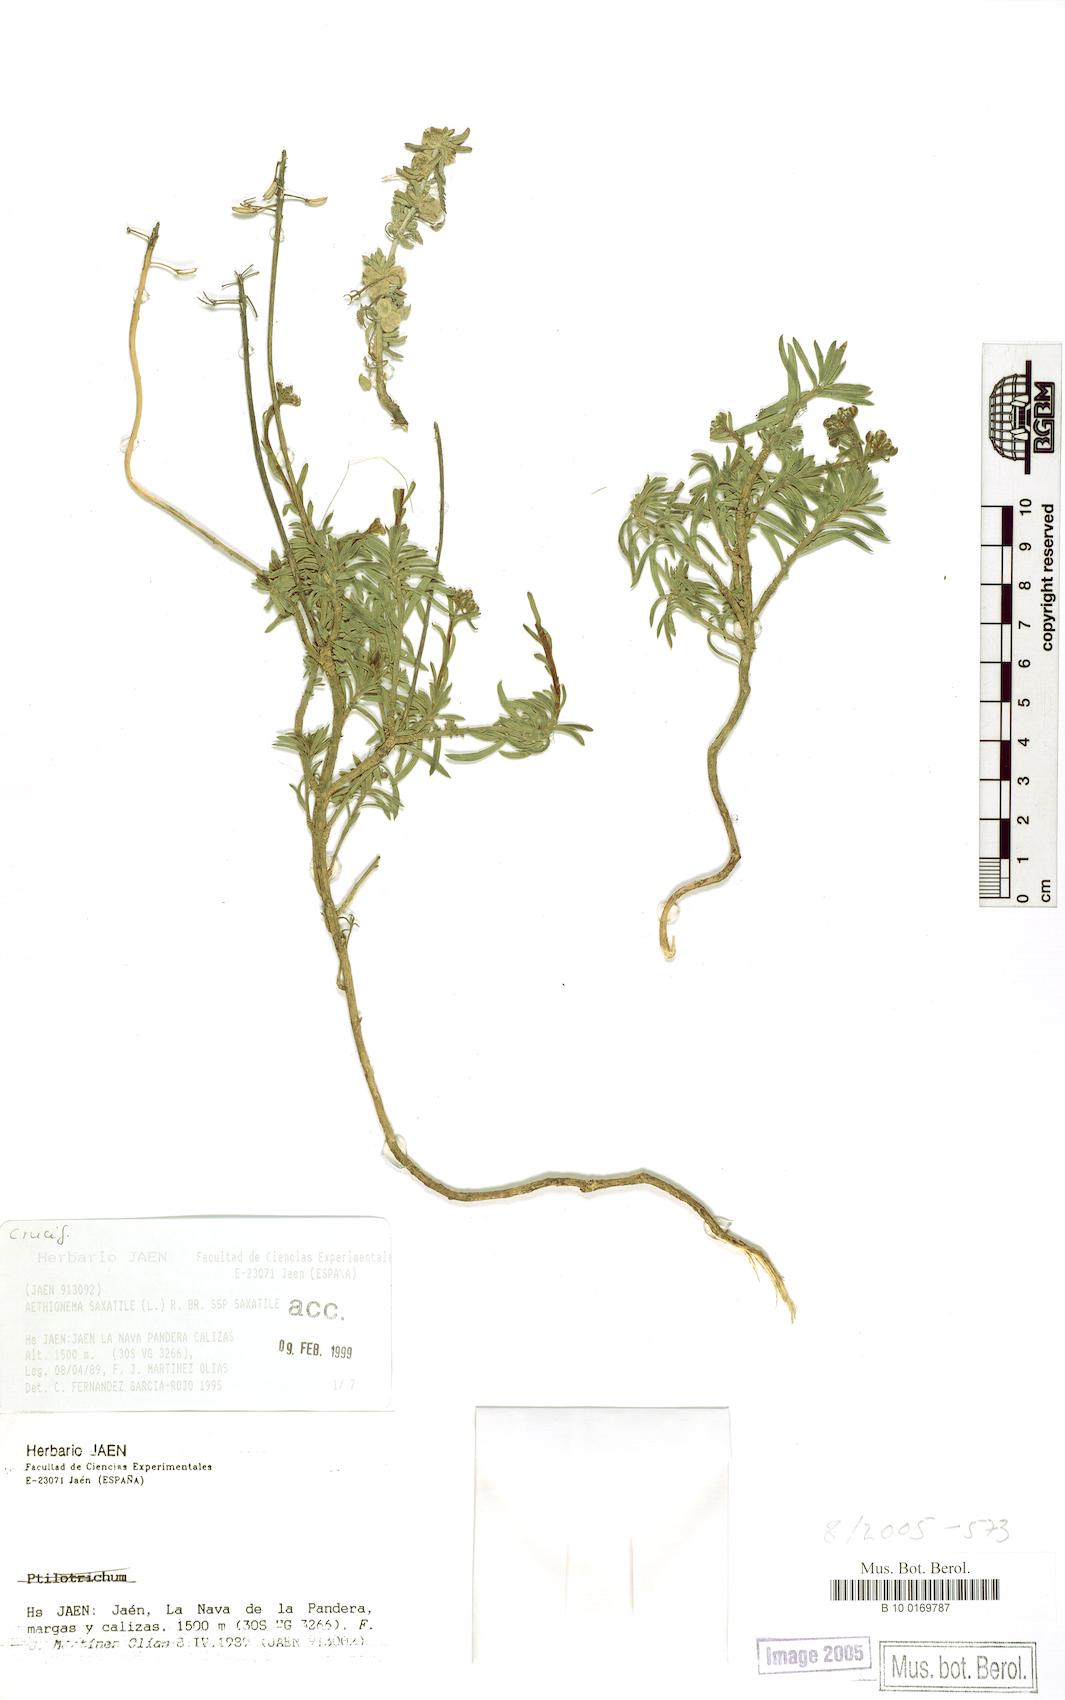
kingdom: Plantae
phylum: Tracheophyta
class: Magnoliopsida
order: Brassicales
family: Brassicaceae
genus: Aethionema
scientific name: Aethionema saxatile
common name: Burnt candytuft
